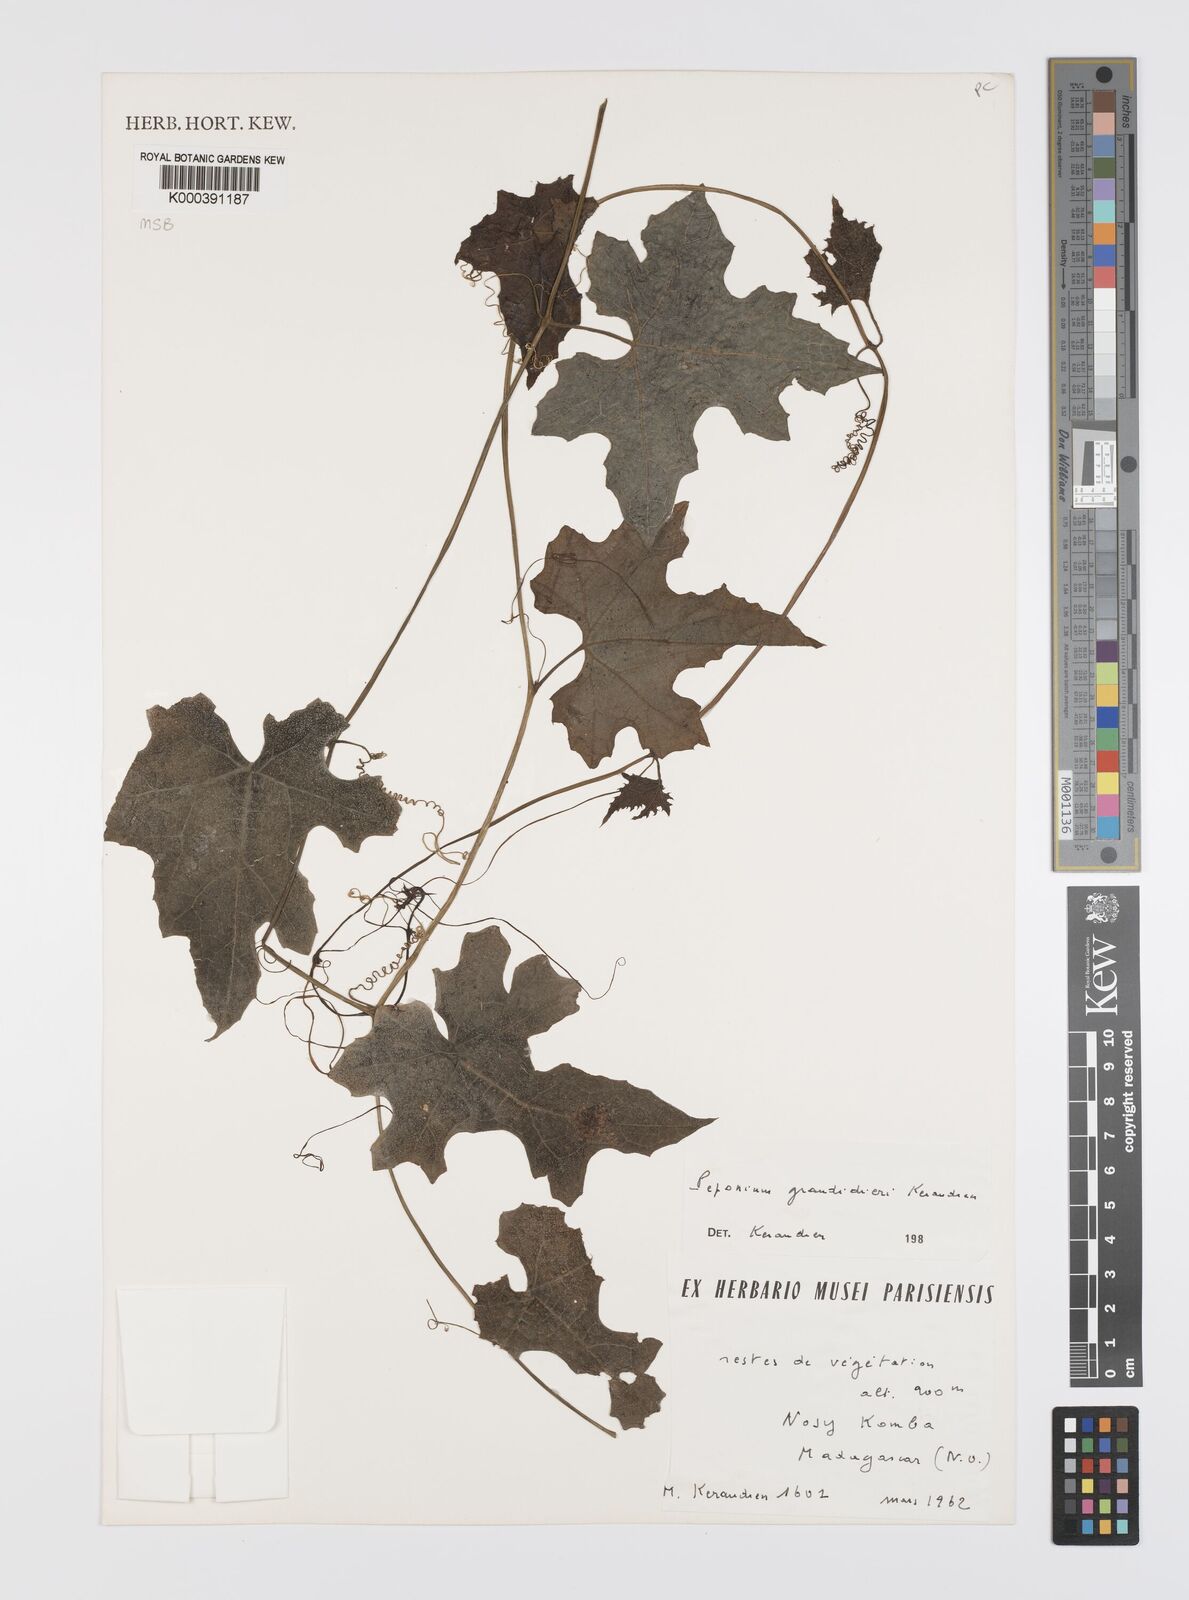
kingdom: Plantae
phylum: Tracheophyta
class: Magnoliopsida
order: Cucurbitales
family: Cucurbitaceae
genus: Peponium
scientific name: Peponium
